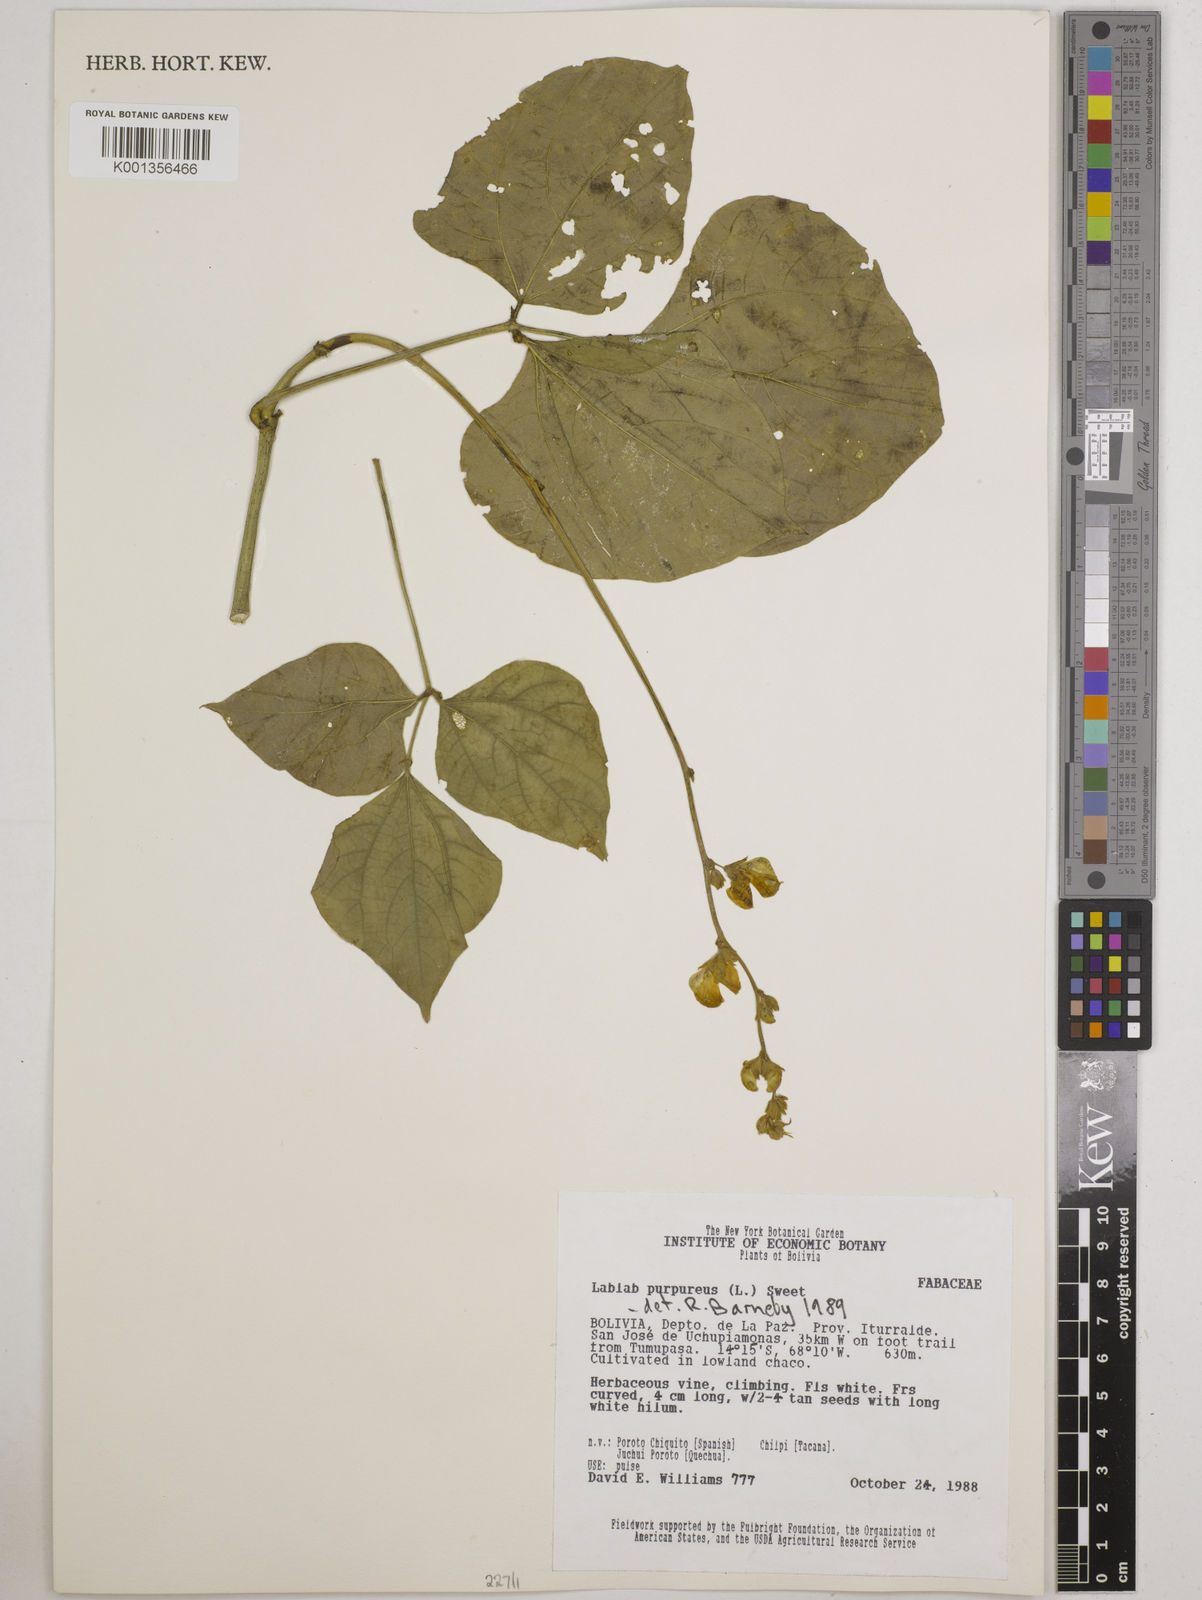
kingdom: Plantae
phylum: Tracheophyta
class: Magnoliopsida
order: Fabales
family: Fabaceae
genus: Lablab
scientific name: Lablab purpureus
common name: Lablab-bean
